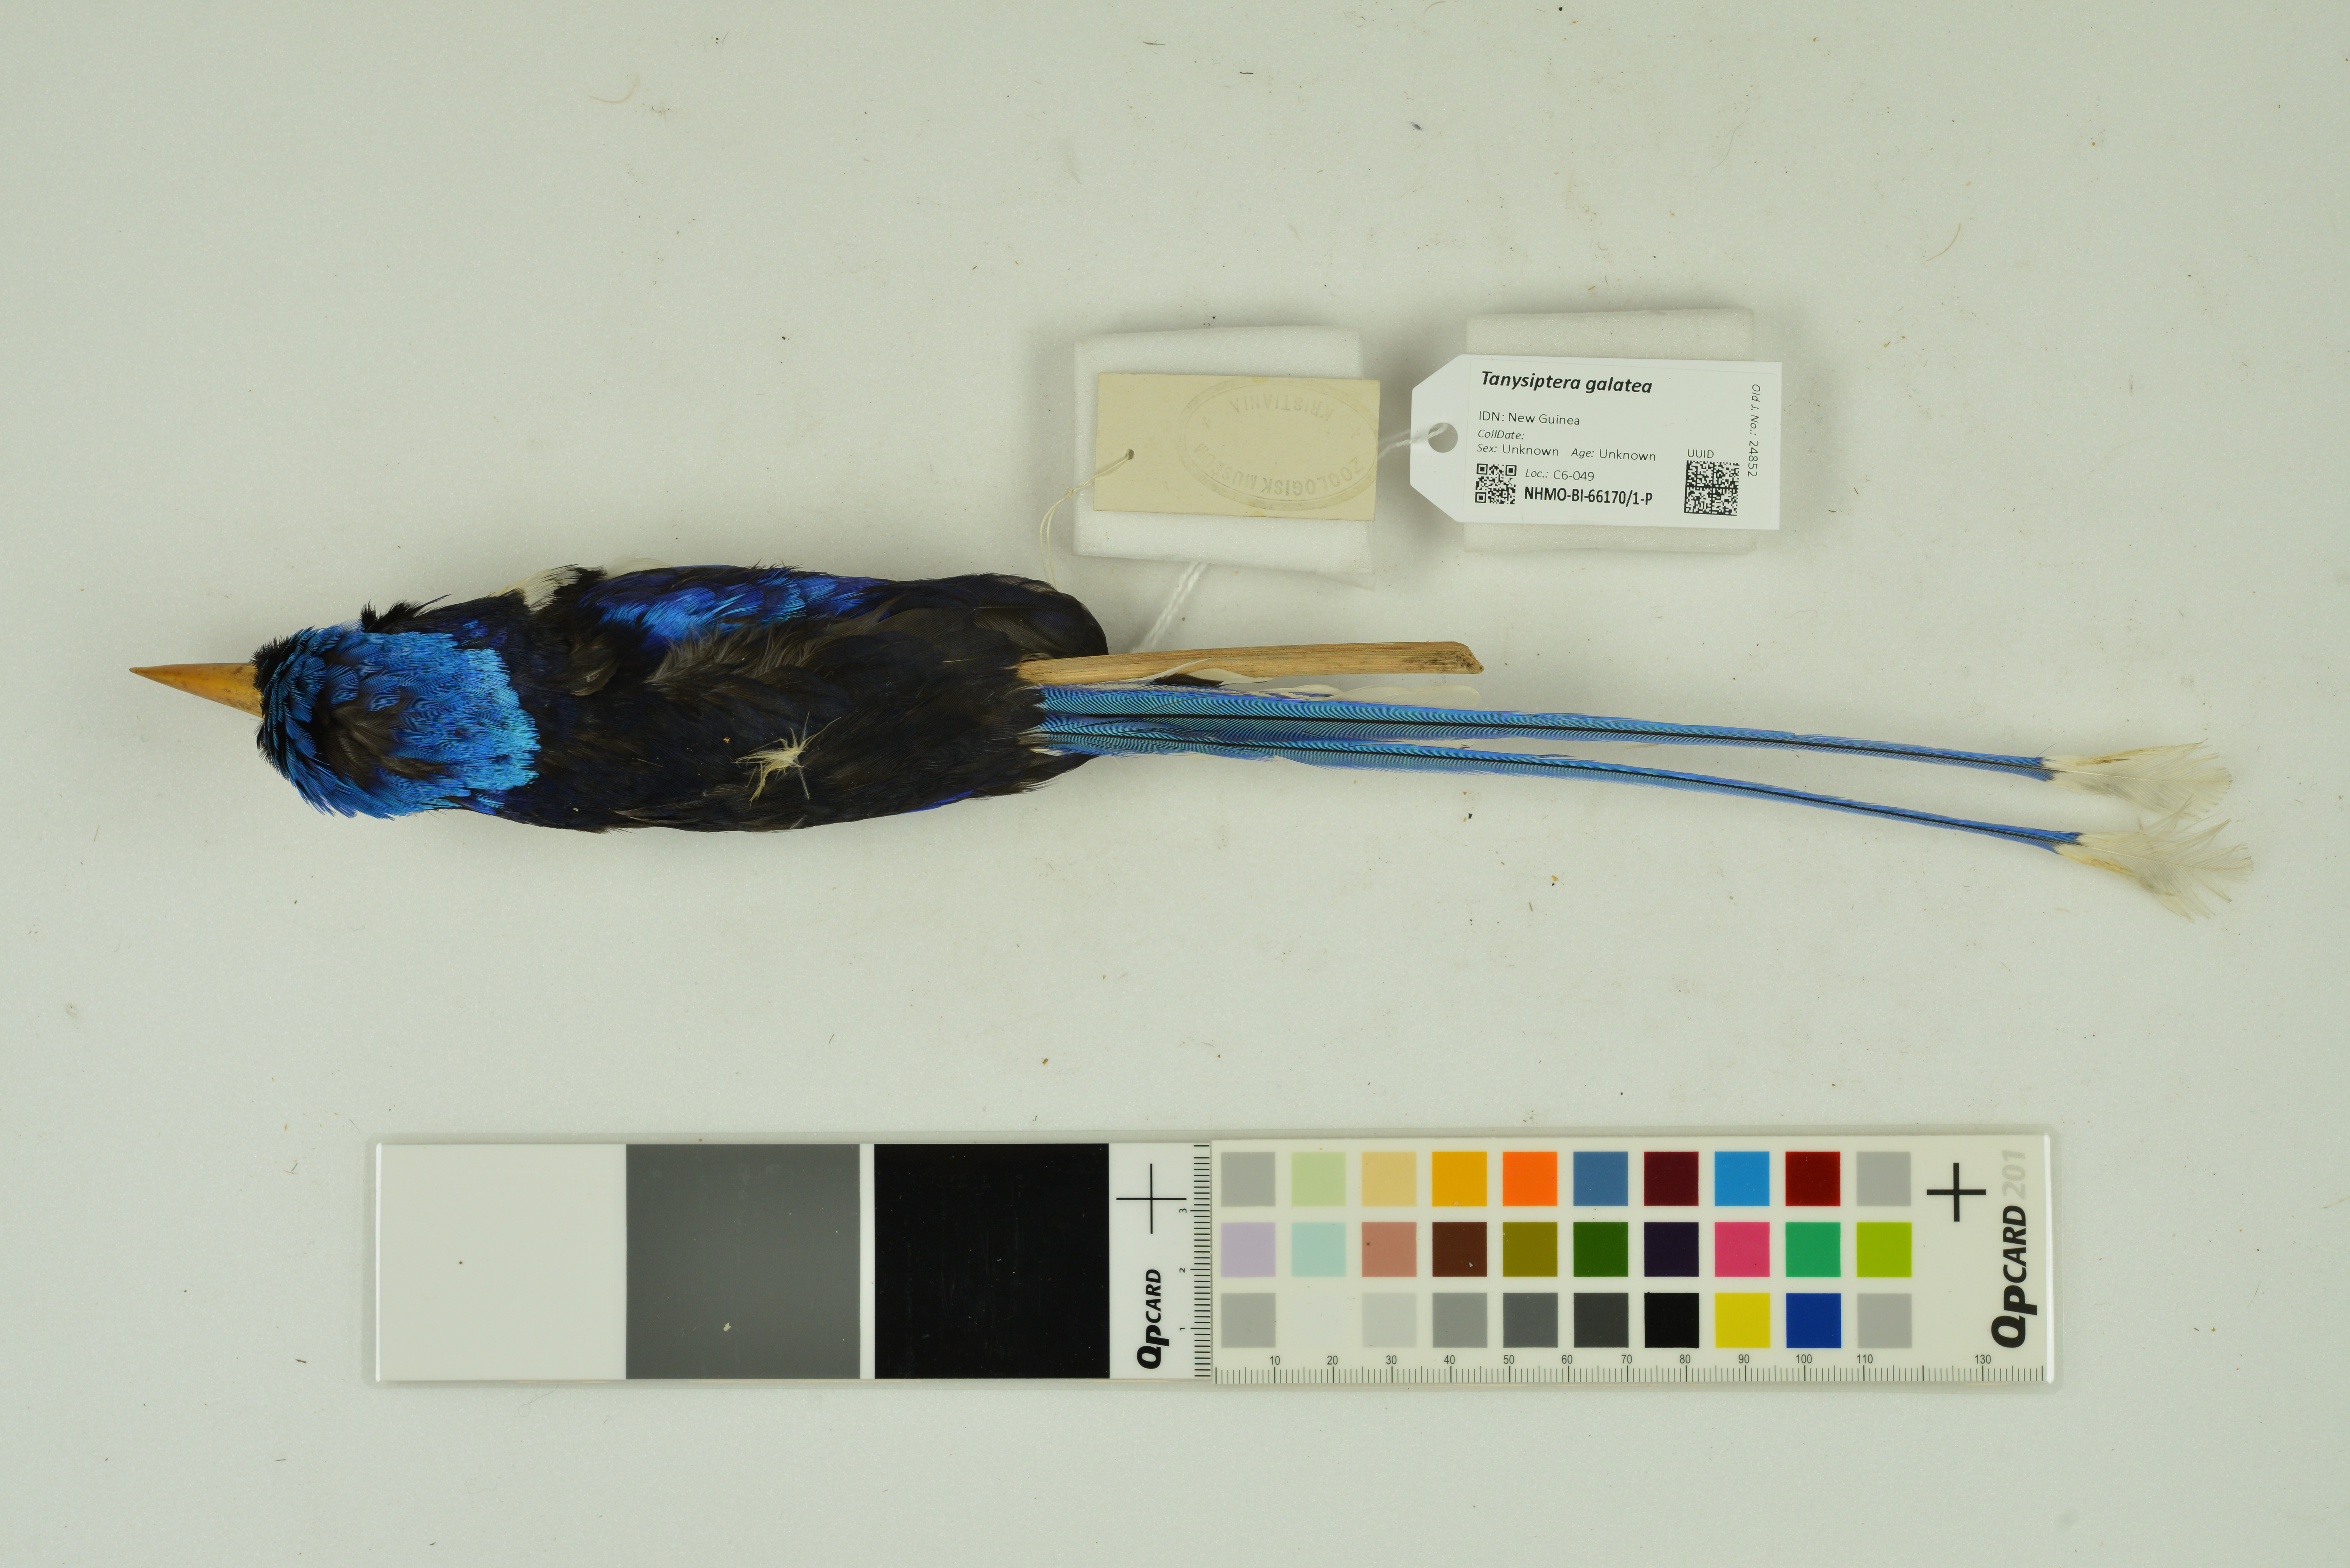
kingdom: Animalia
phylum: Chordata
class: Aves
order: Coraciiformes
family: Alcedinidae
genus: Tanysiptera
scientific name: Tanysiptera galatea
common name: Common paradise-kingfisher
